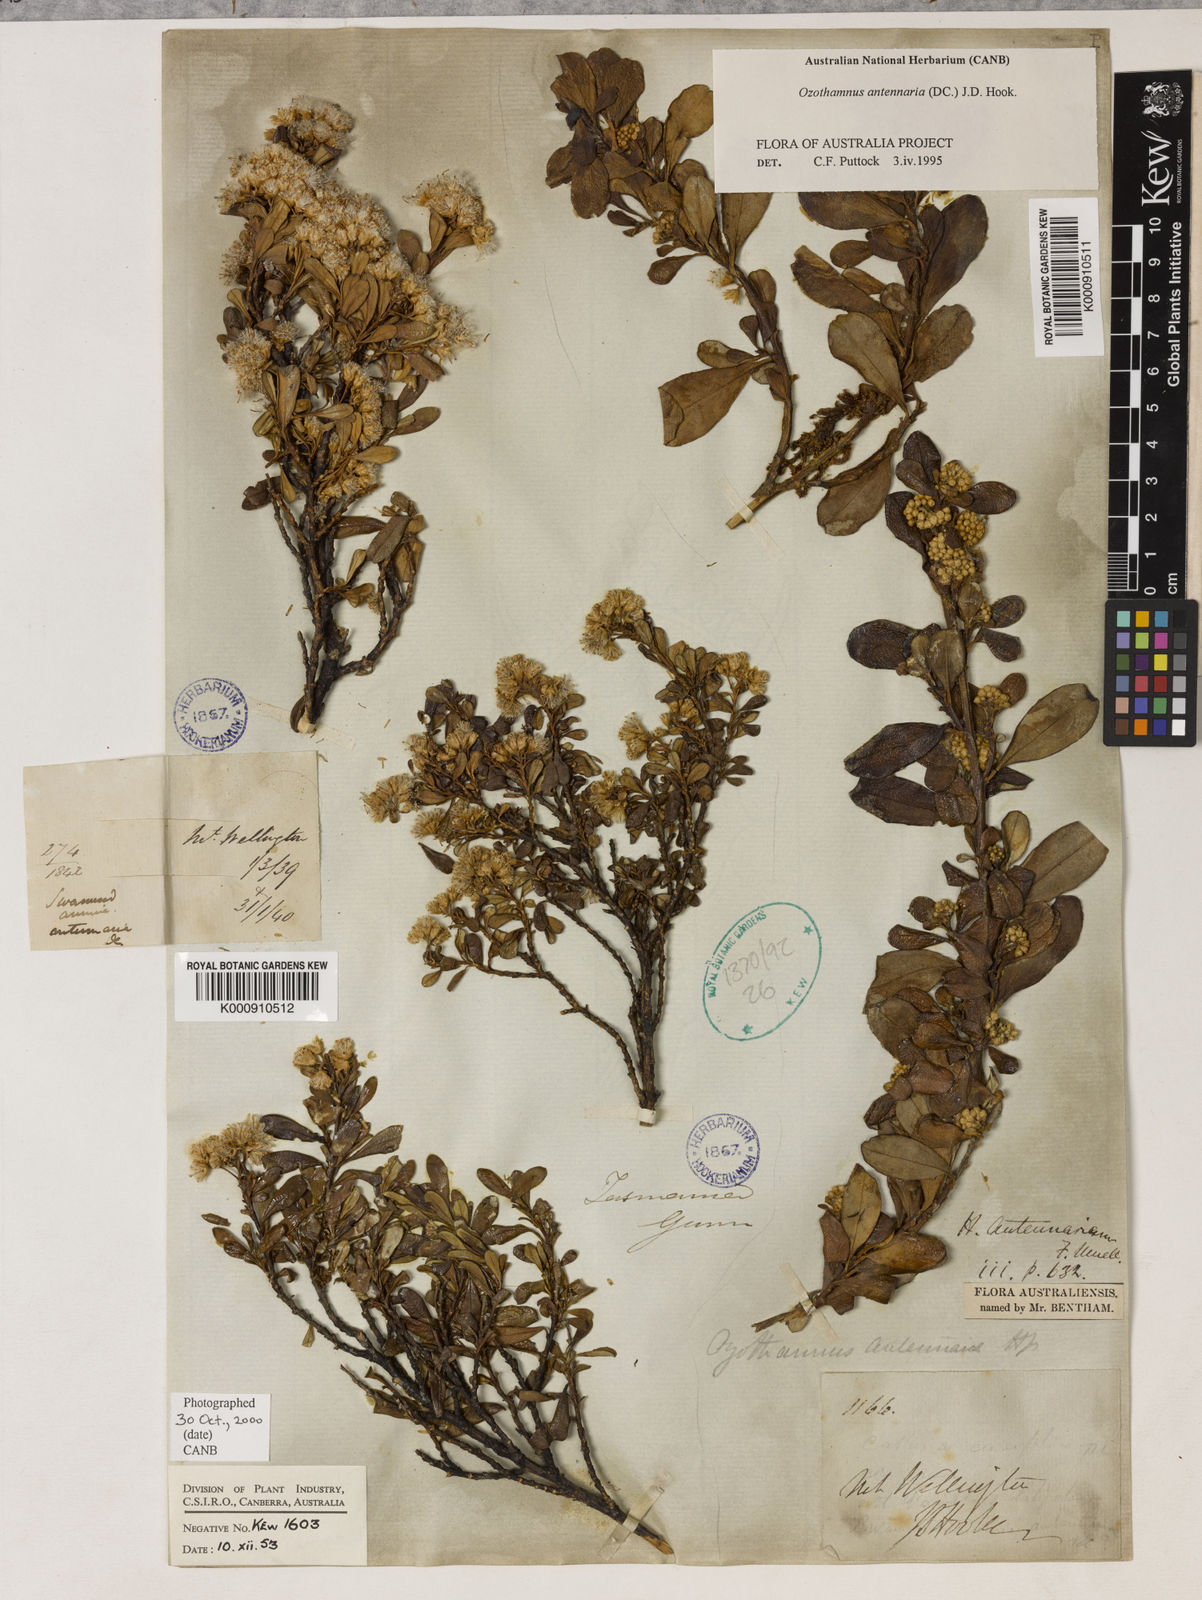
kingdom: Plantae
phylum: Tracheophyta
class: Magnoliopsida
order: Asterales
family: Asteraceae
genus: Ozothamnus
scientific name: Ozothamnus antennaria
